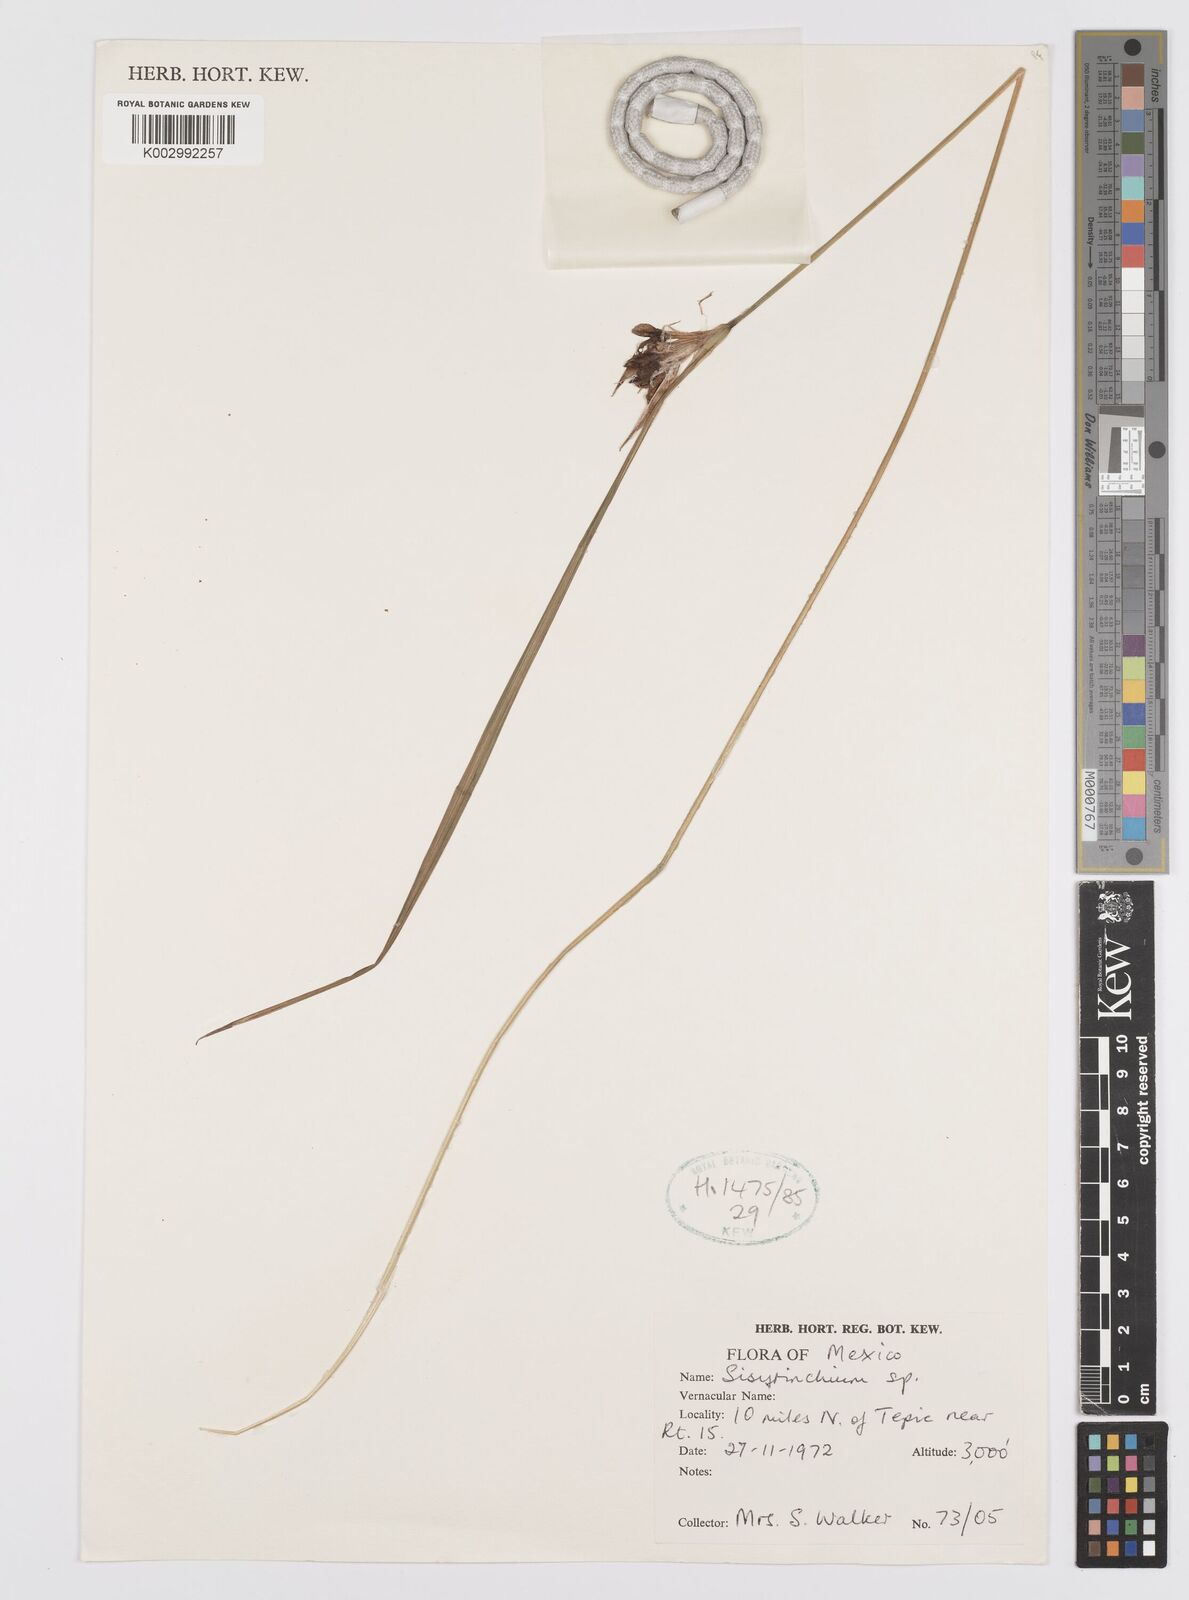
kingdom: Plantae
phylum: Tracheophyta
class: Liliopsida
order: Asparagales
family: Iridaceae
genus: Sisyrinchium
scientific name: Sisyrinchium
